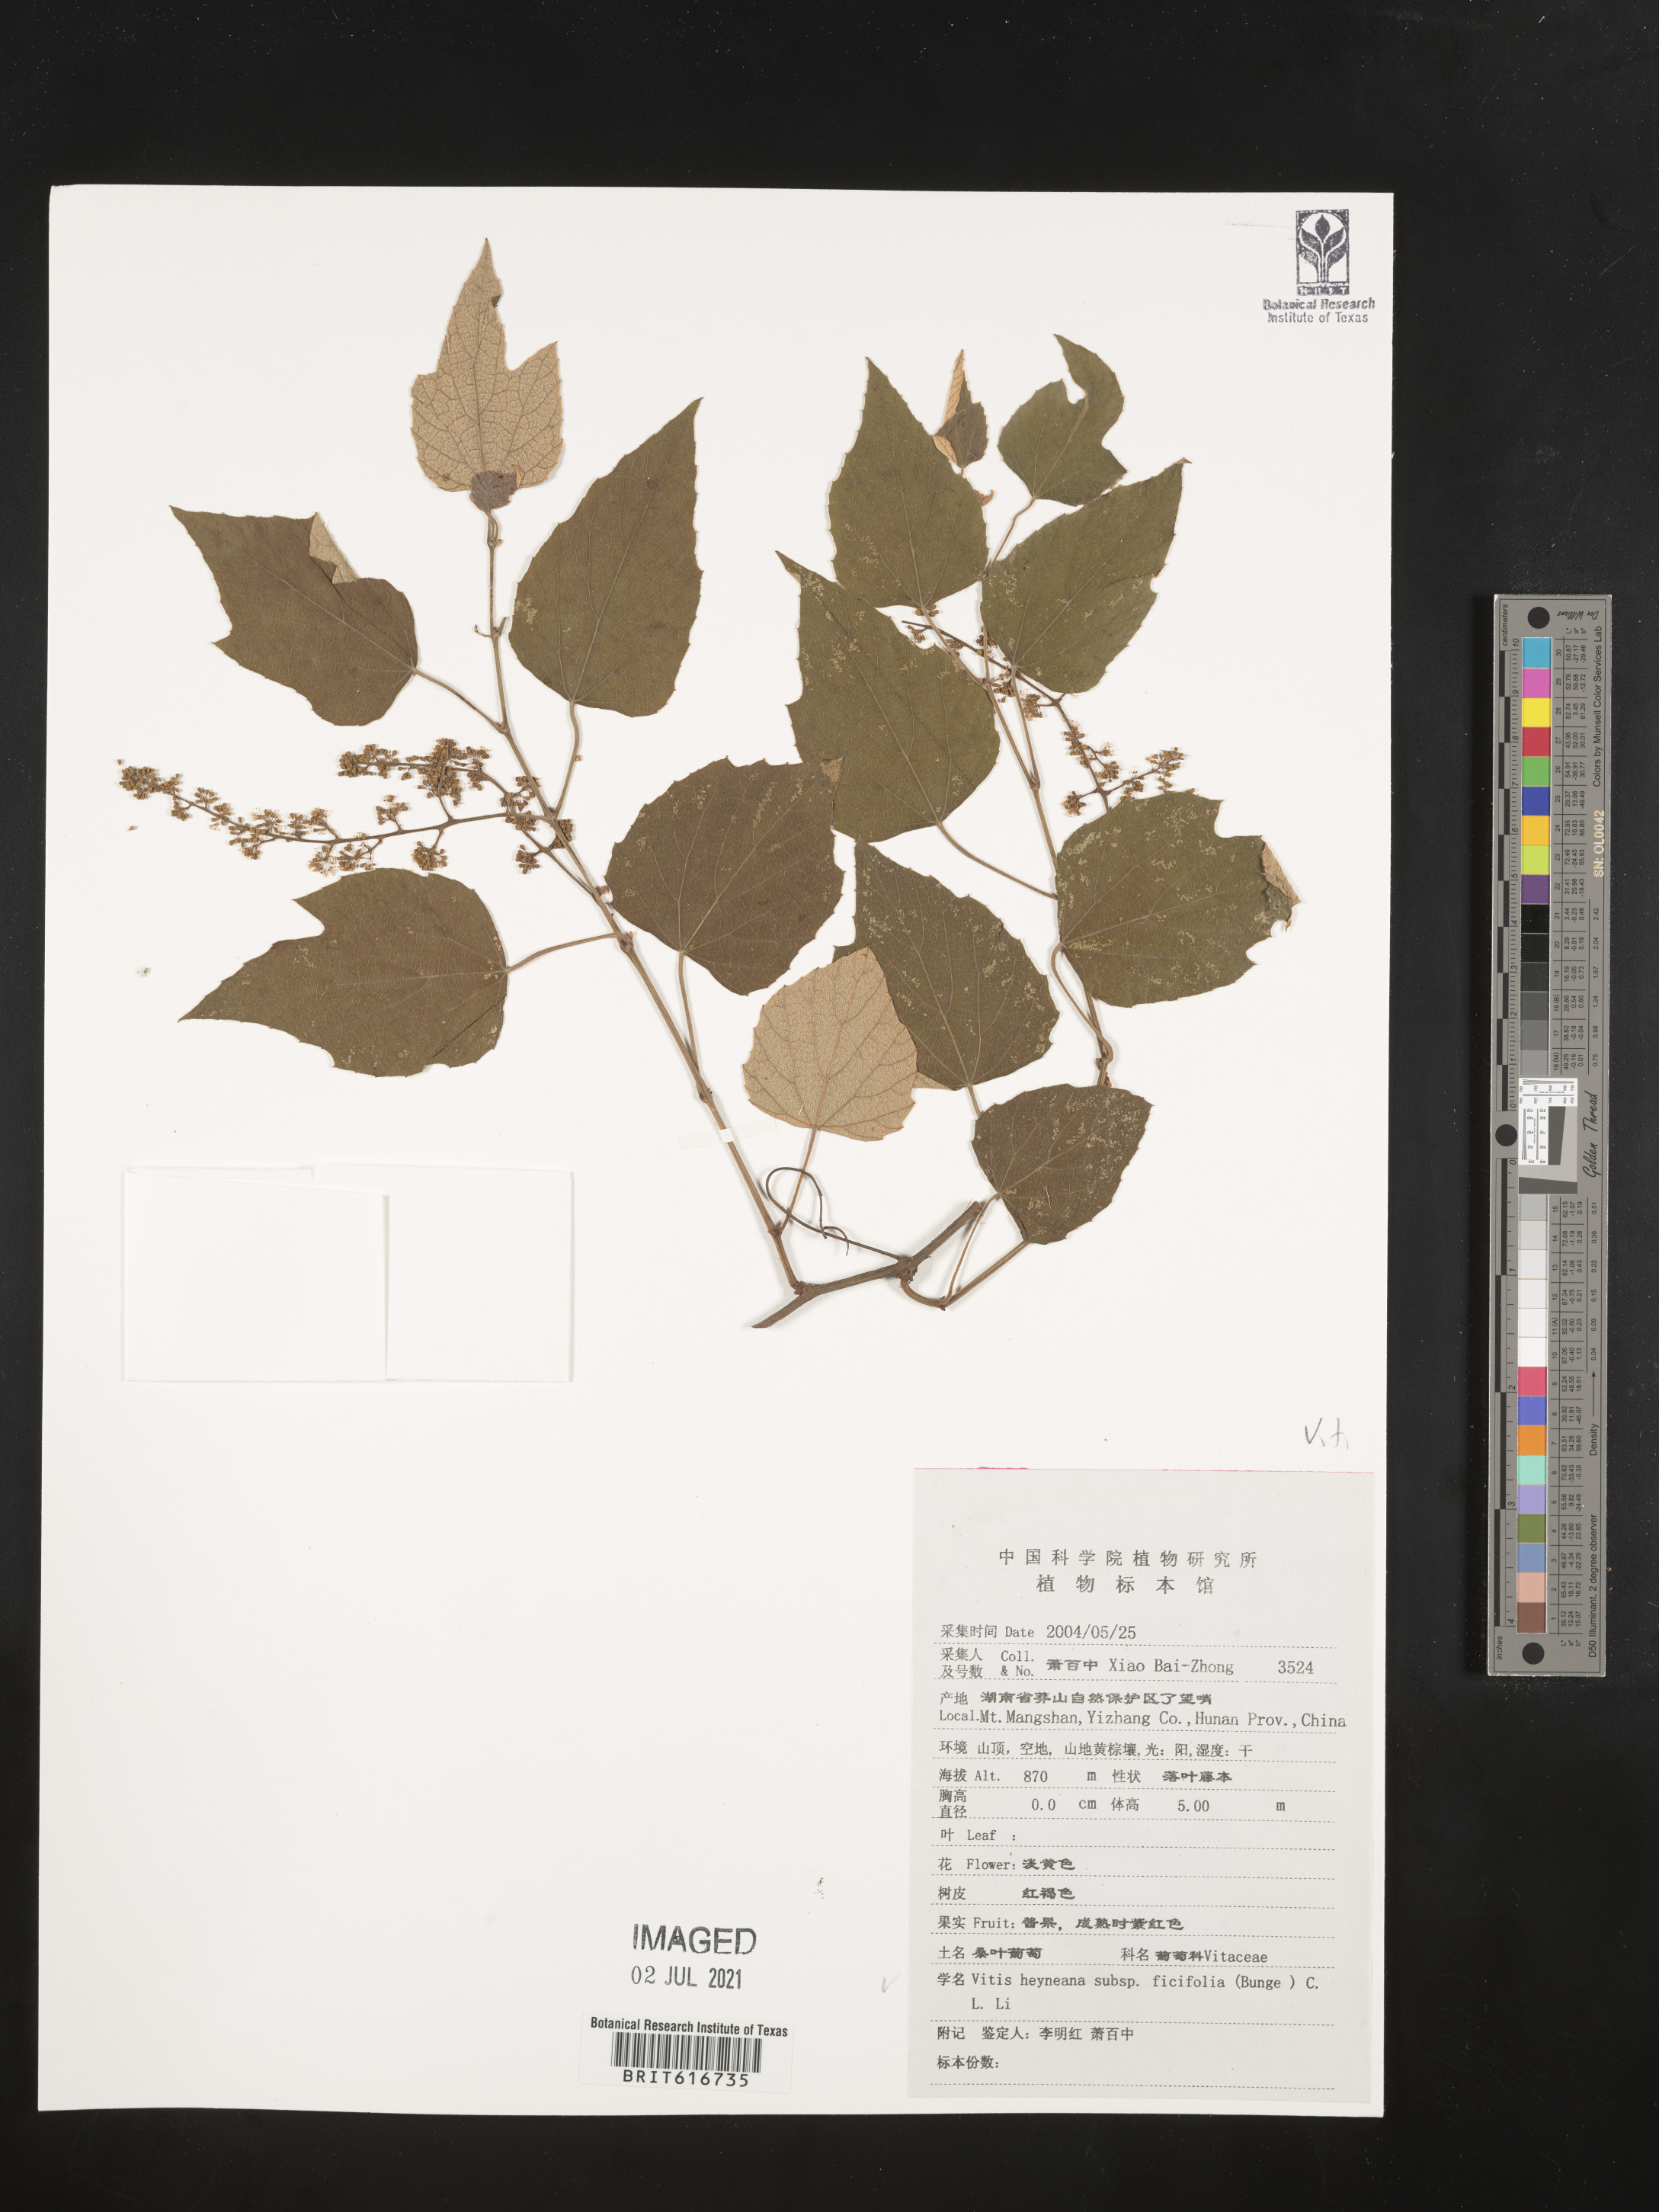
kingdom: Plantae
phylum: Tracheophyta
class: Magnoliopsida
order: Vitales
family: Vitaceae
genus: Vitis
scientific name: Vitis ficifolia
